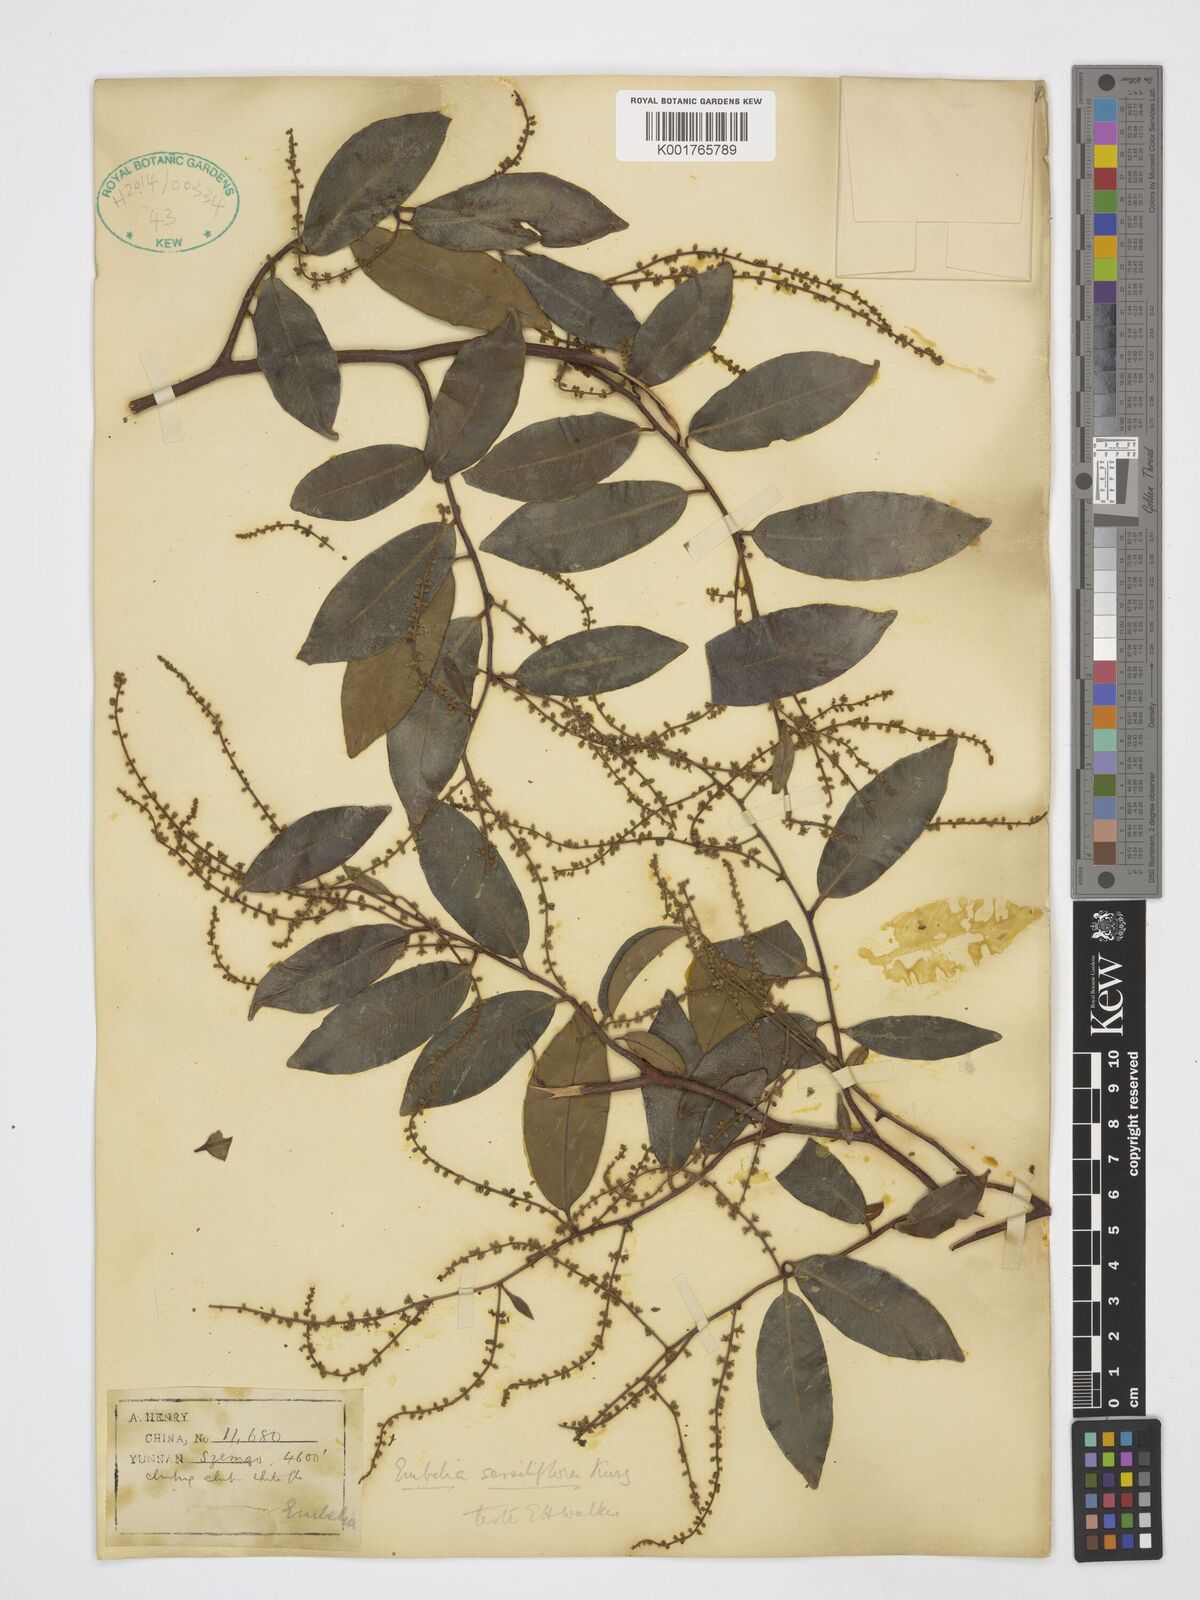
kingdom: Plantae
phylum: Tracheophyta
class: Magnoliopsida
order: Ericales
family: Primulaceae
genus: Embelia
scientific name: Embelia sessiliflora
